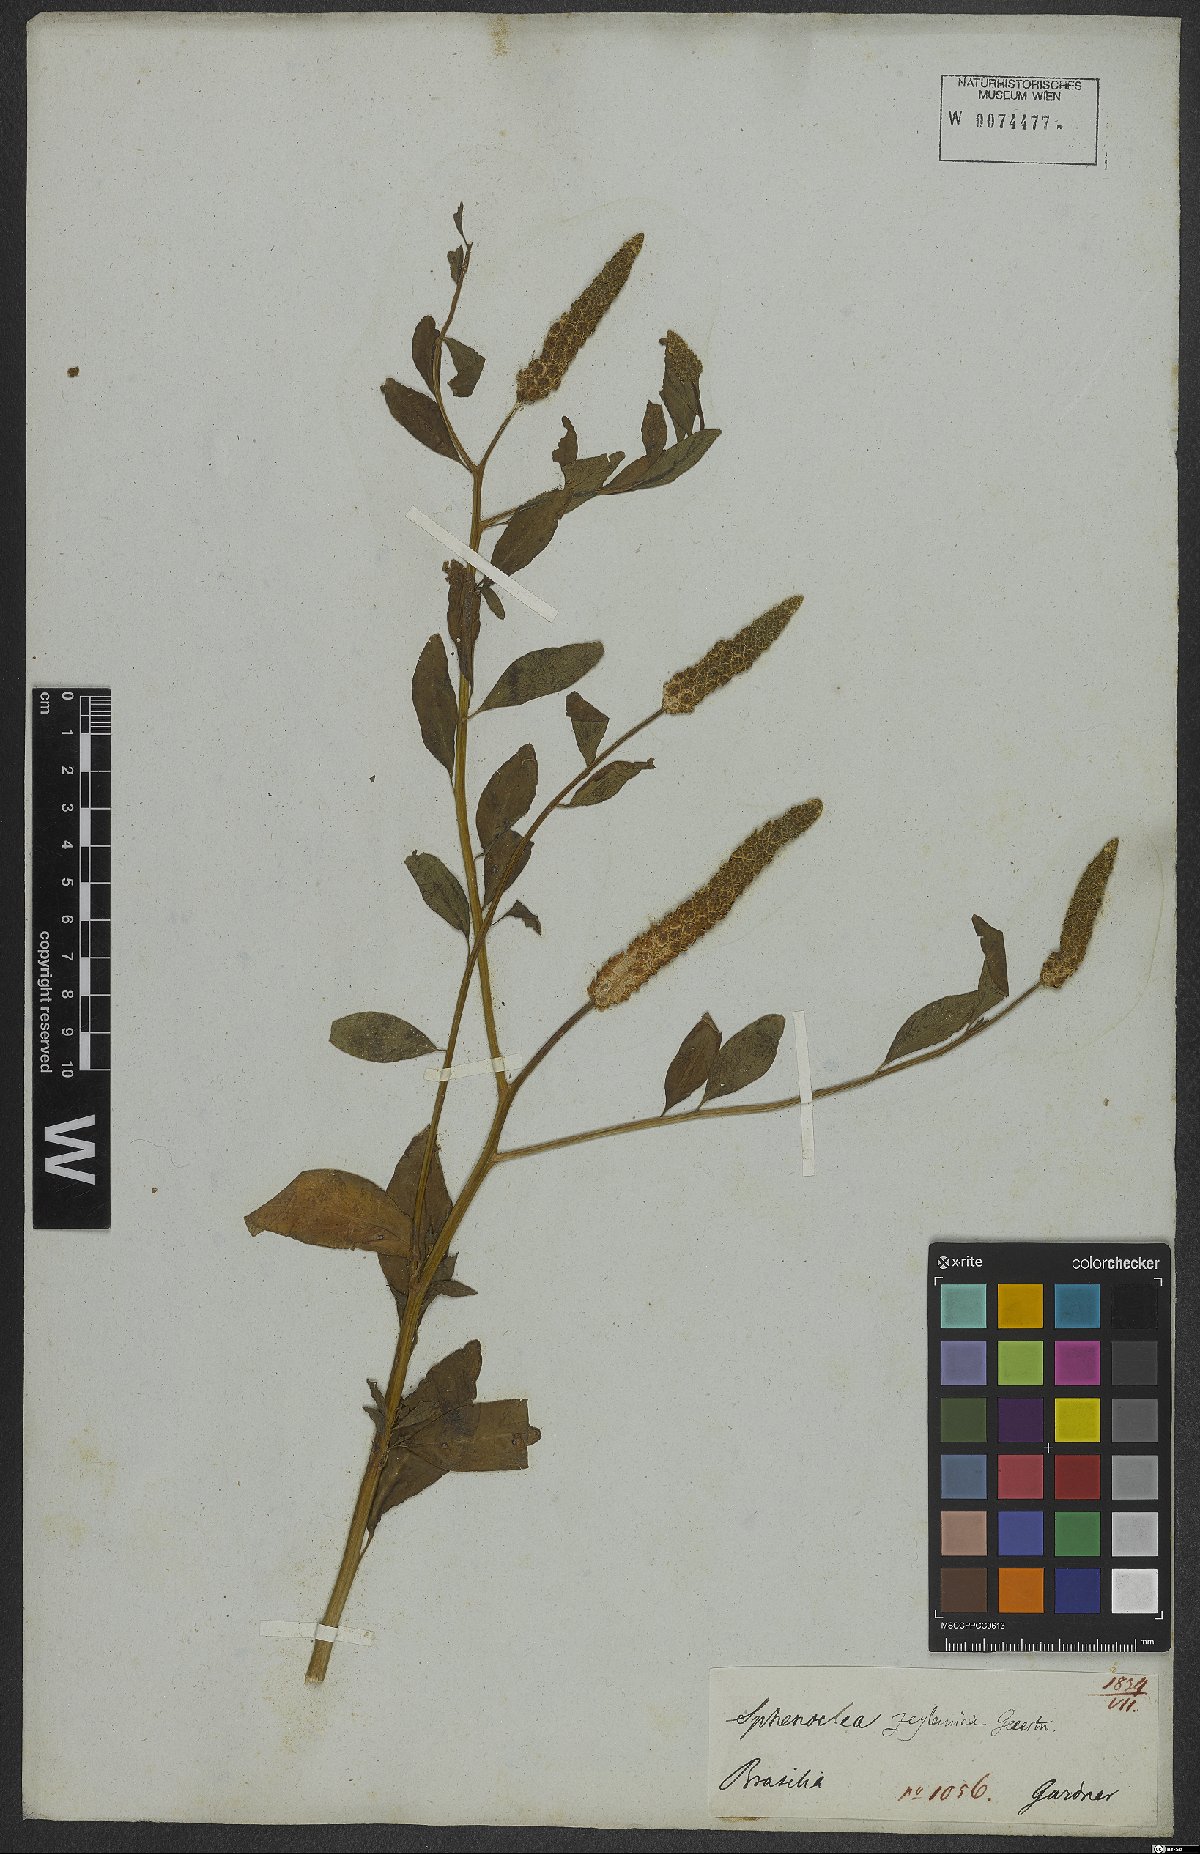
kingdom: Plantae
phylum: Tracheophyta
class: Magnoliopsida
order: Solanales
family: Sphenocleaceae
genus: Sphenoclea
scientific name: Sphenoclea zeylanica
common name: Chickenspike
